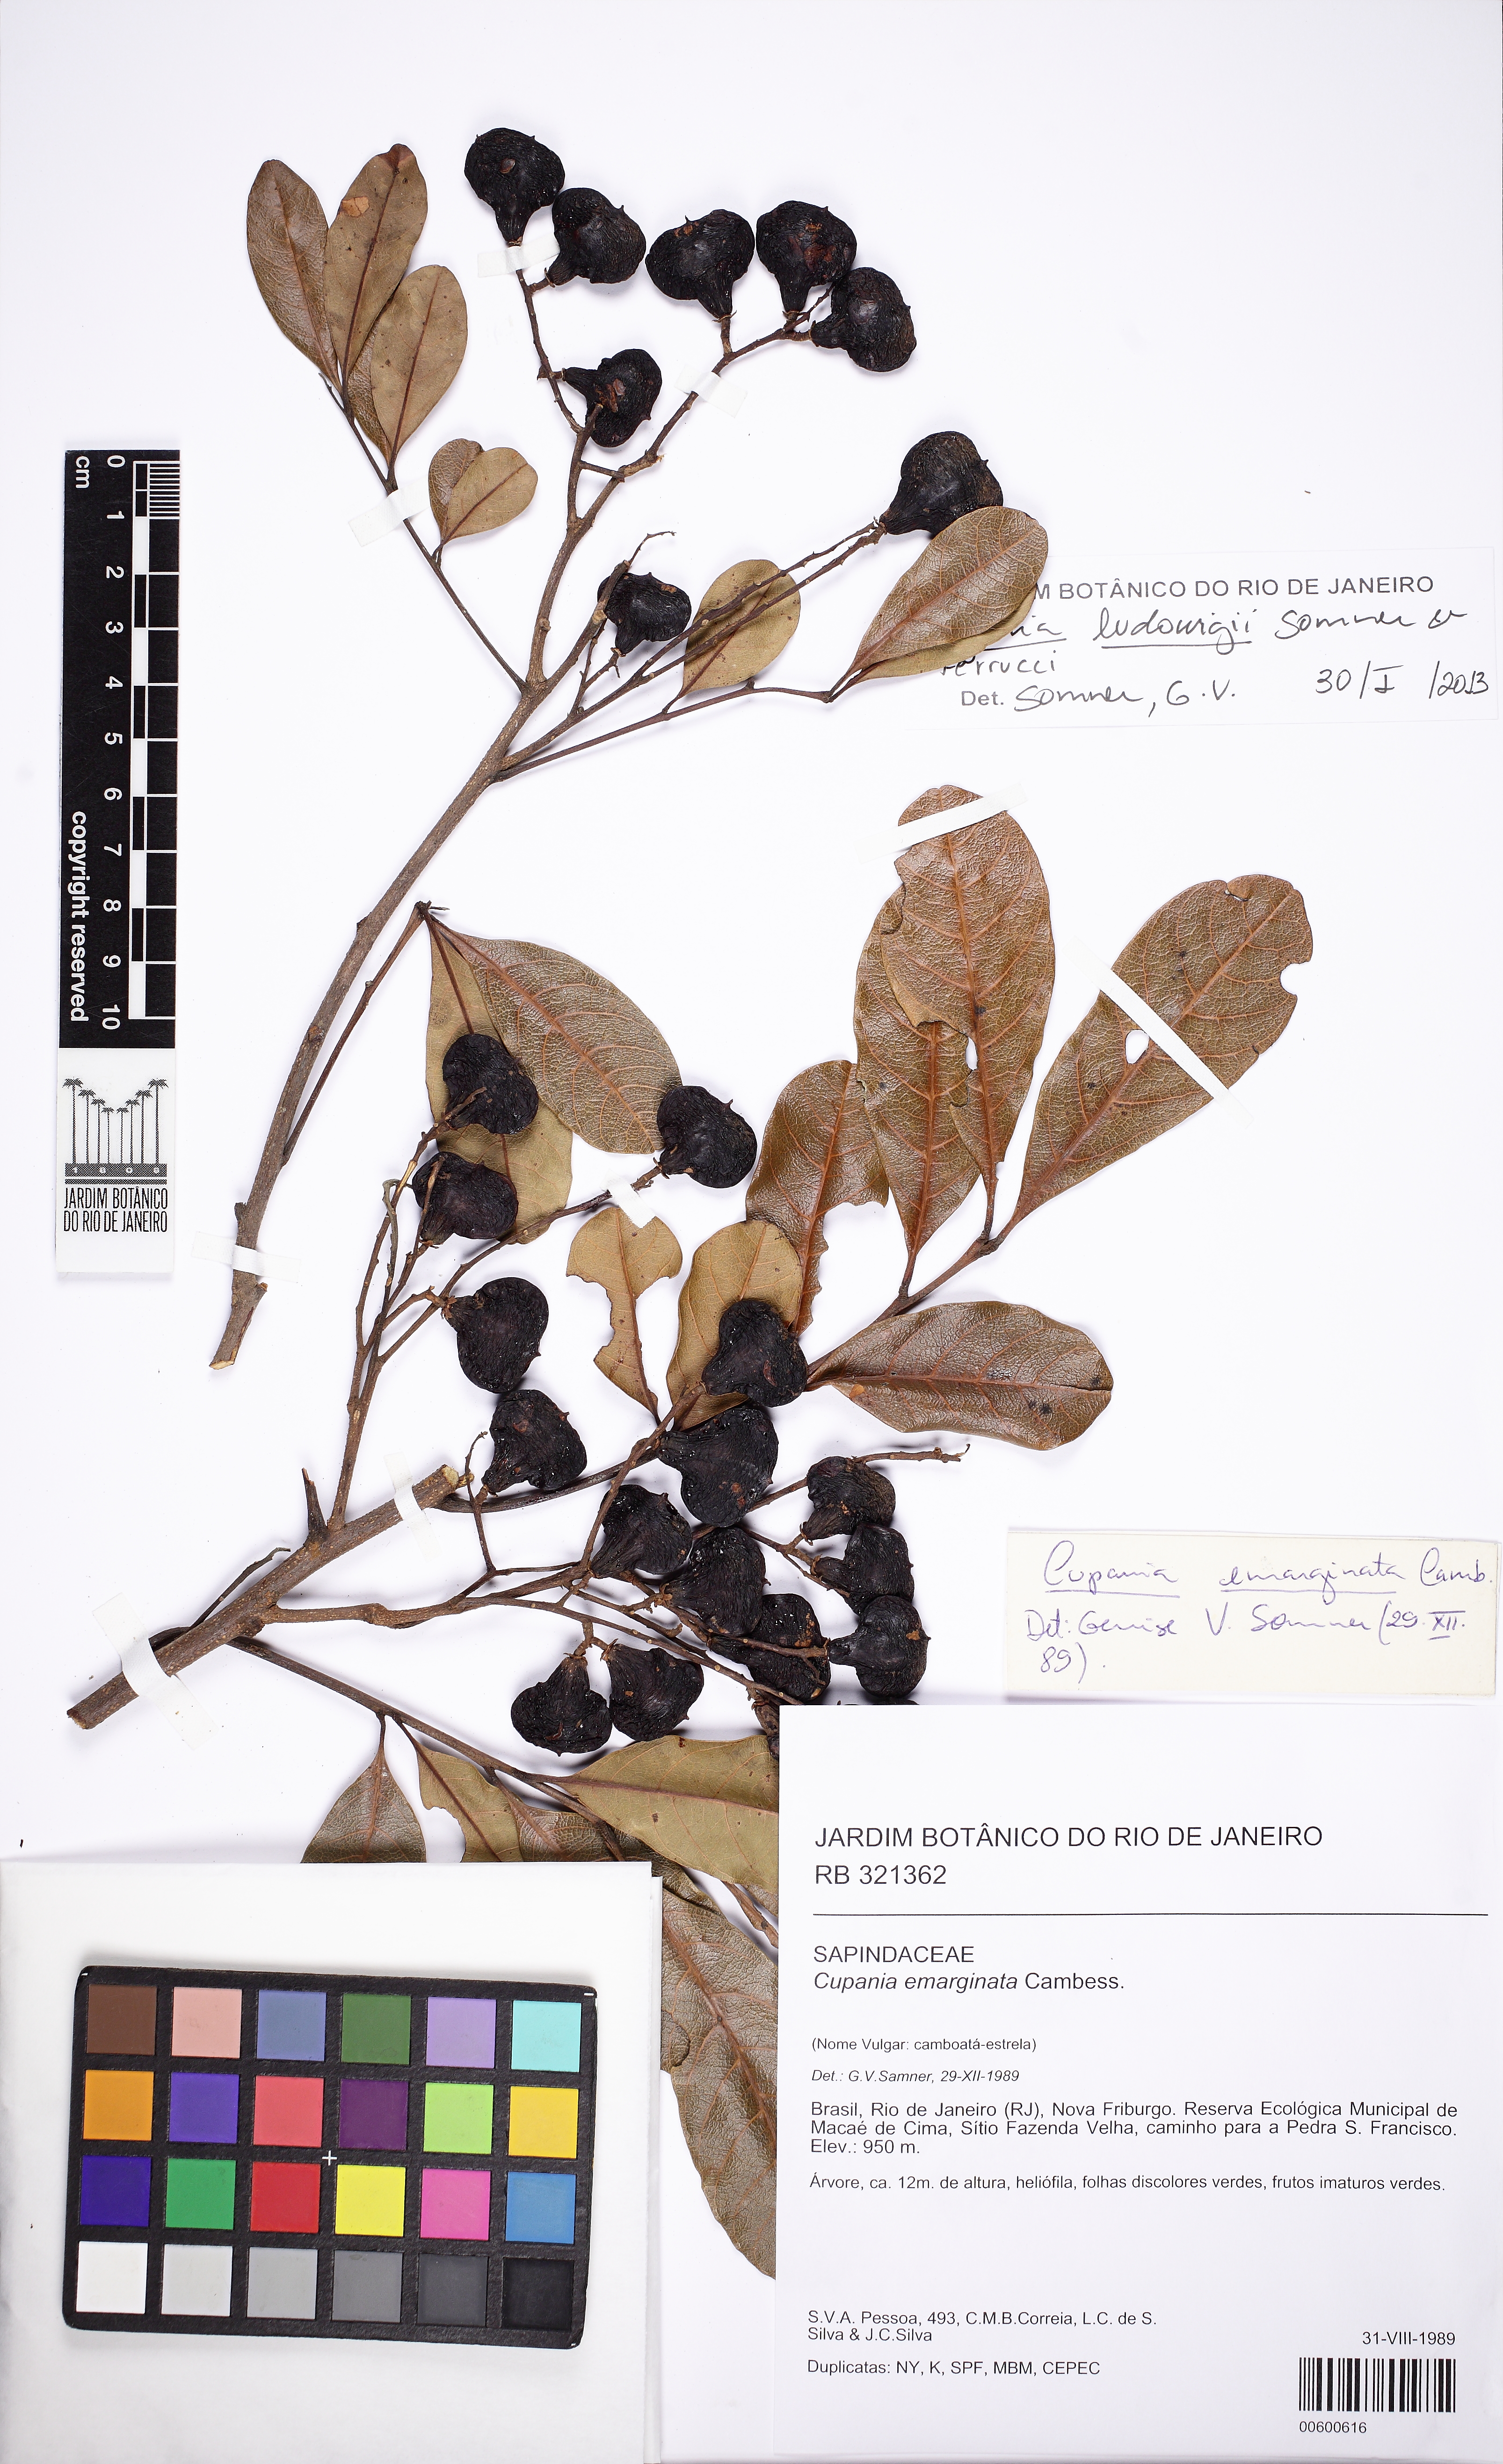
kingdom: Plantae
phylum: Tracheophyta
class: Magnoliopsida
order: Sapindales
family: Sapindaceae
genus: Cupania
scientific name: Cupania ludowigii
